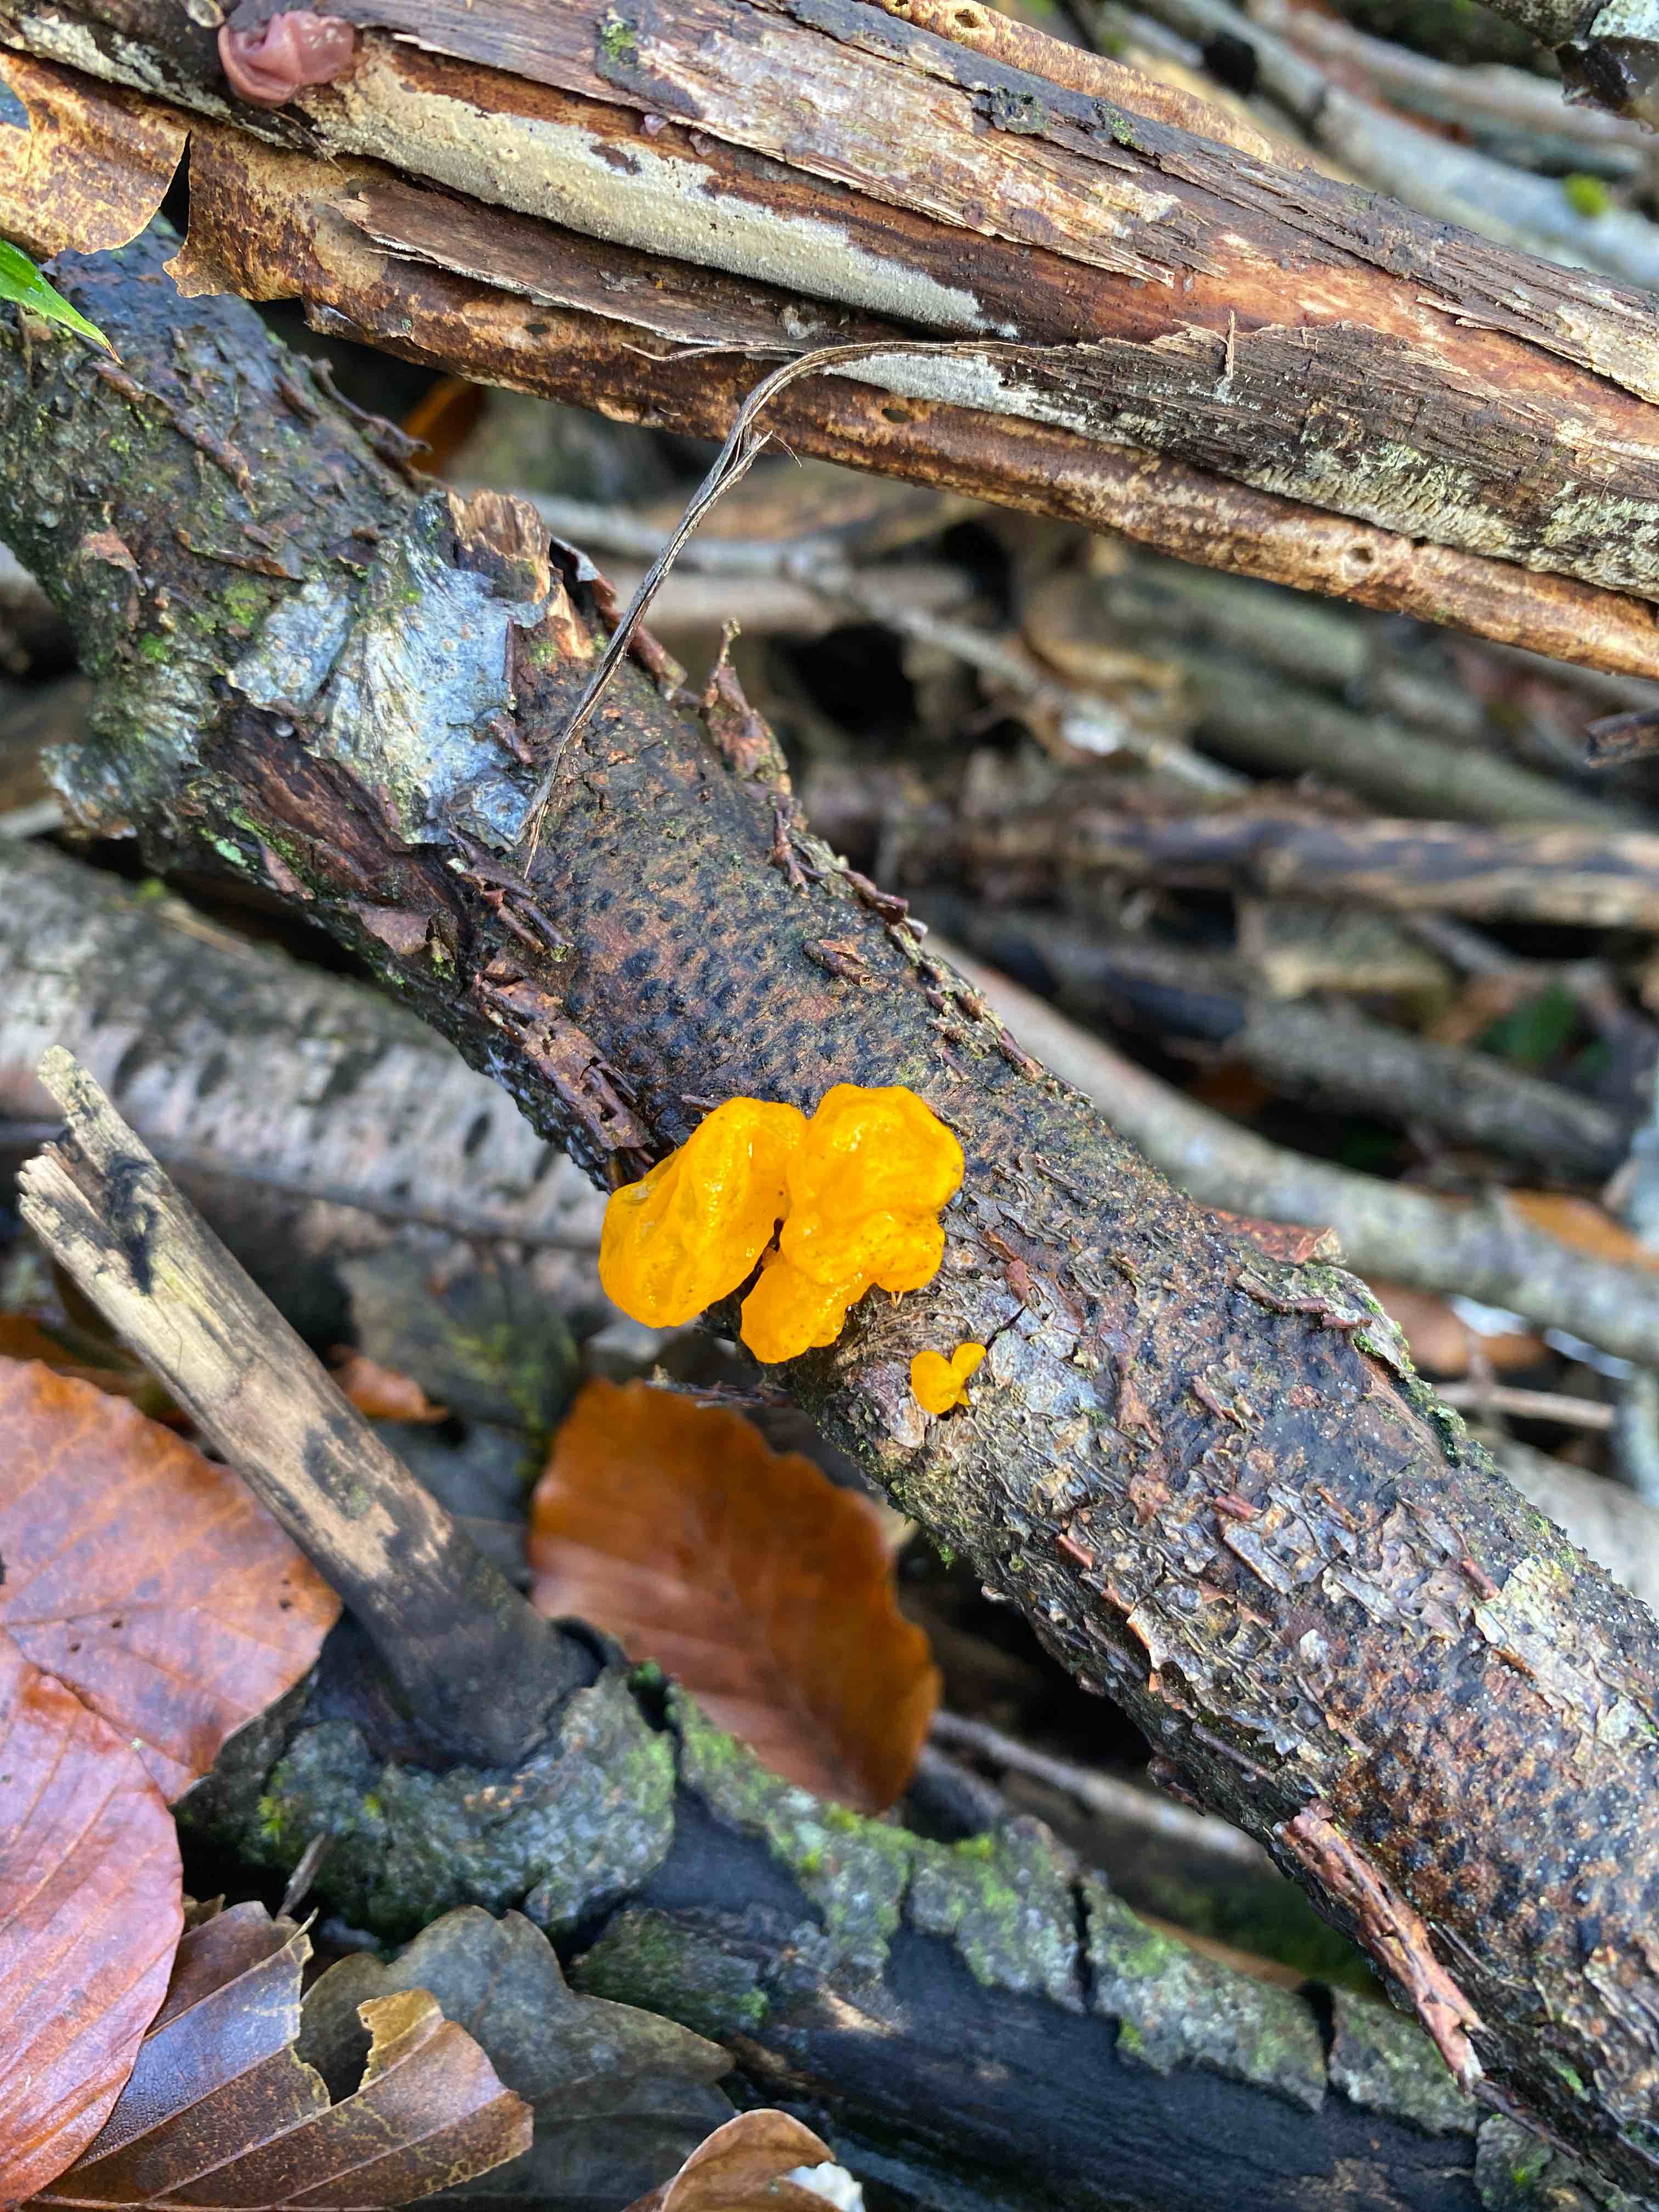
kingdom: Fungi
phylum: Basidiomycota
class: Tremellomycetes
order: Tremellales
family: Tremellaceae
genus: Tremella
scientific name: Tremella mesenterica
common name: gul bævresvamp
